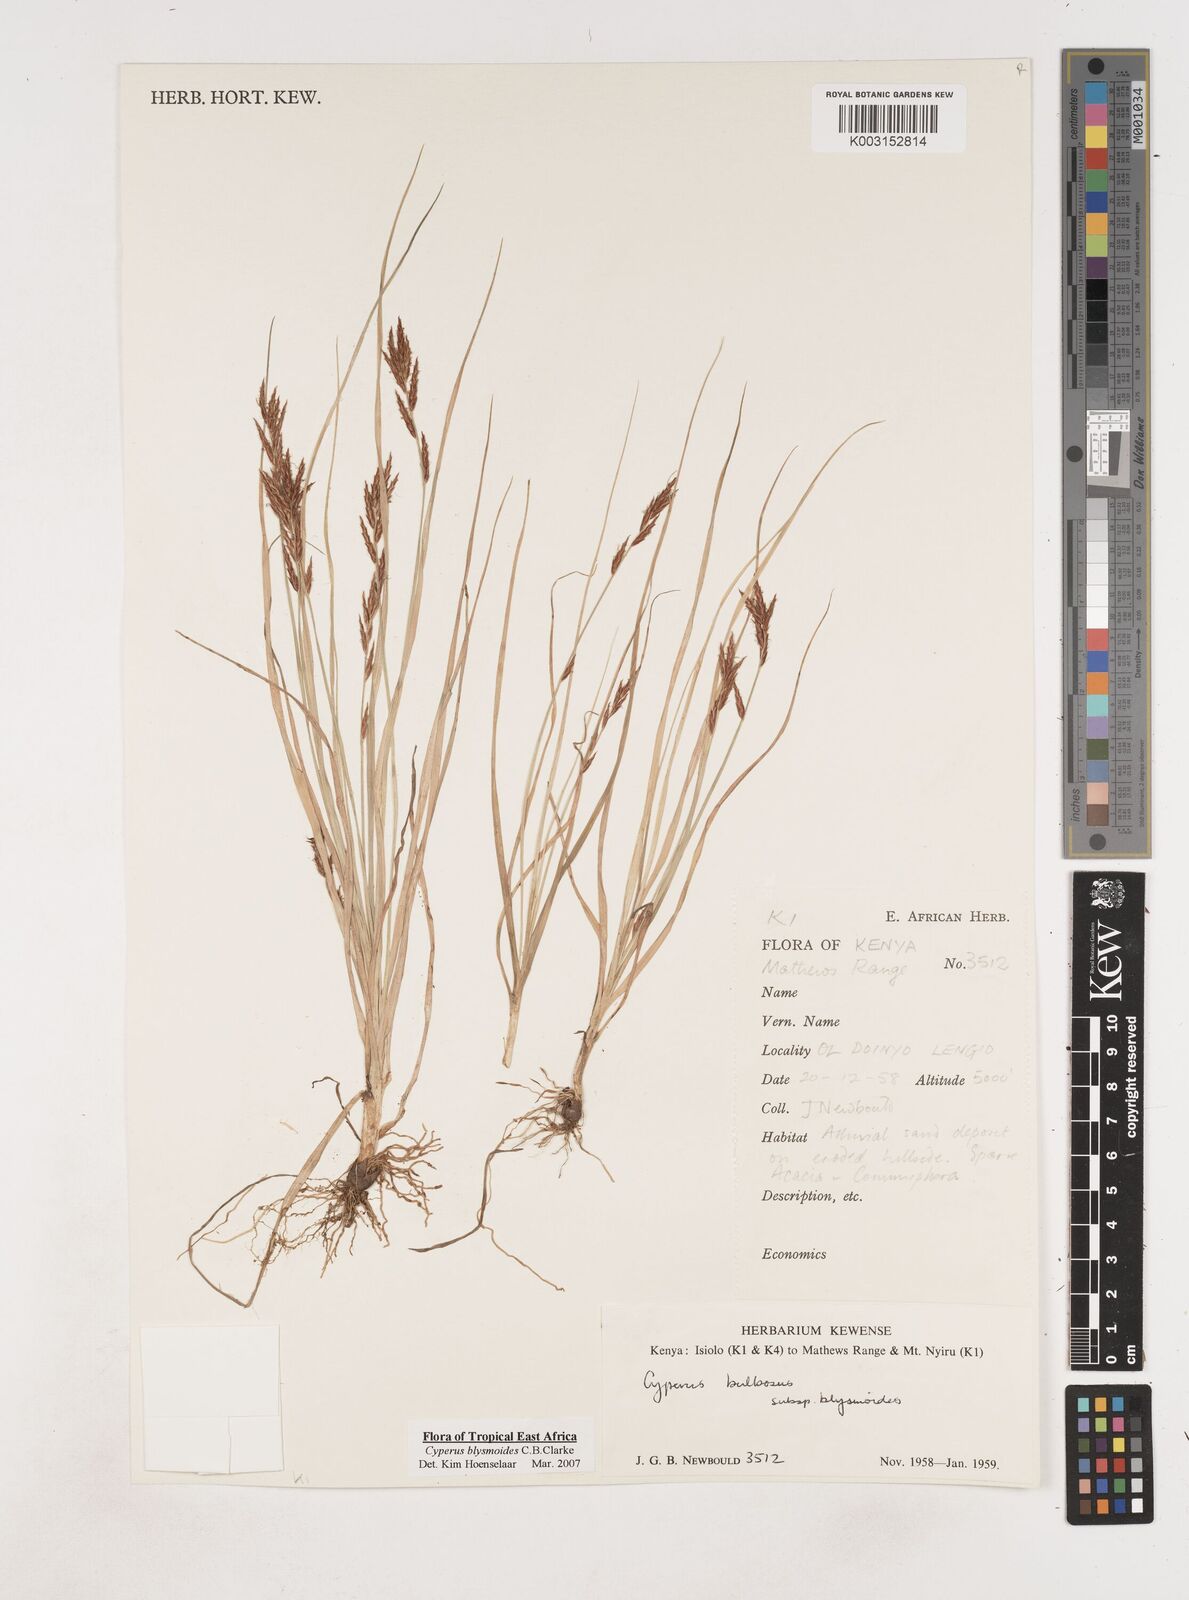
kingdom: Plantae
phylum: Tracheophyta
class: Liliopsida
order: Poales
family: Cyperaceae
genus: Cyperus
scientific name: Cyperus blysmoides
